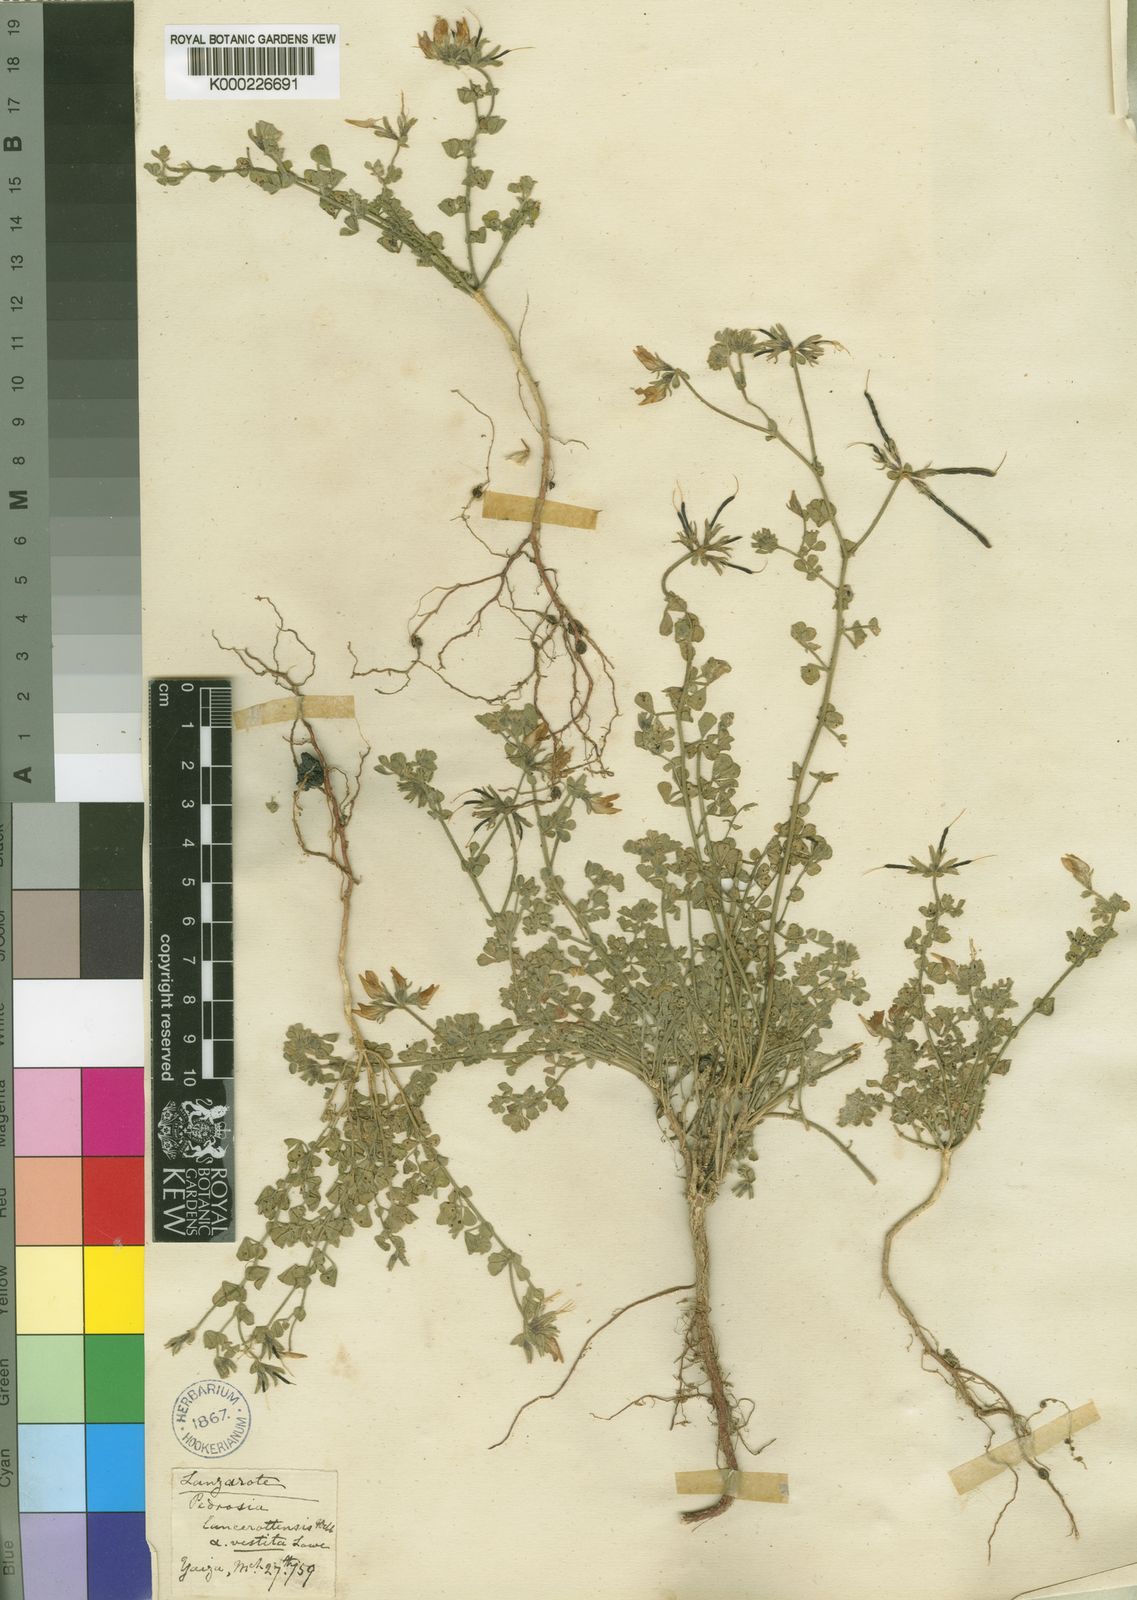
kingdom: Plantae
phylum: Tracheophyta
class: Magnoliopsida
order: Fabales
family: Fabaceae
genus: Lotus
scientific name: Lotus lancerottensis
